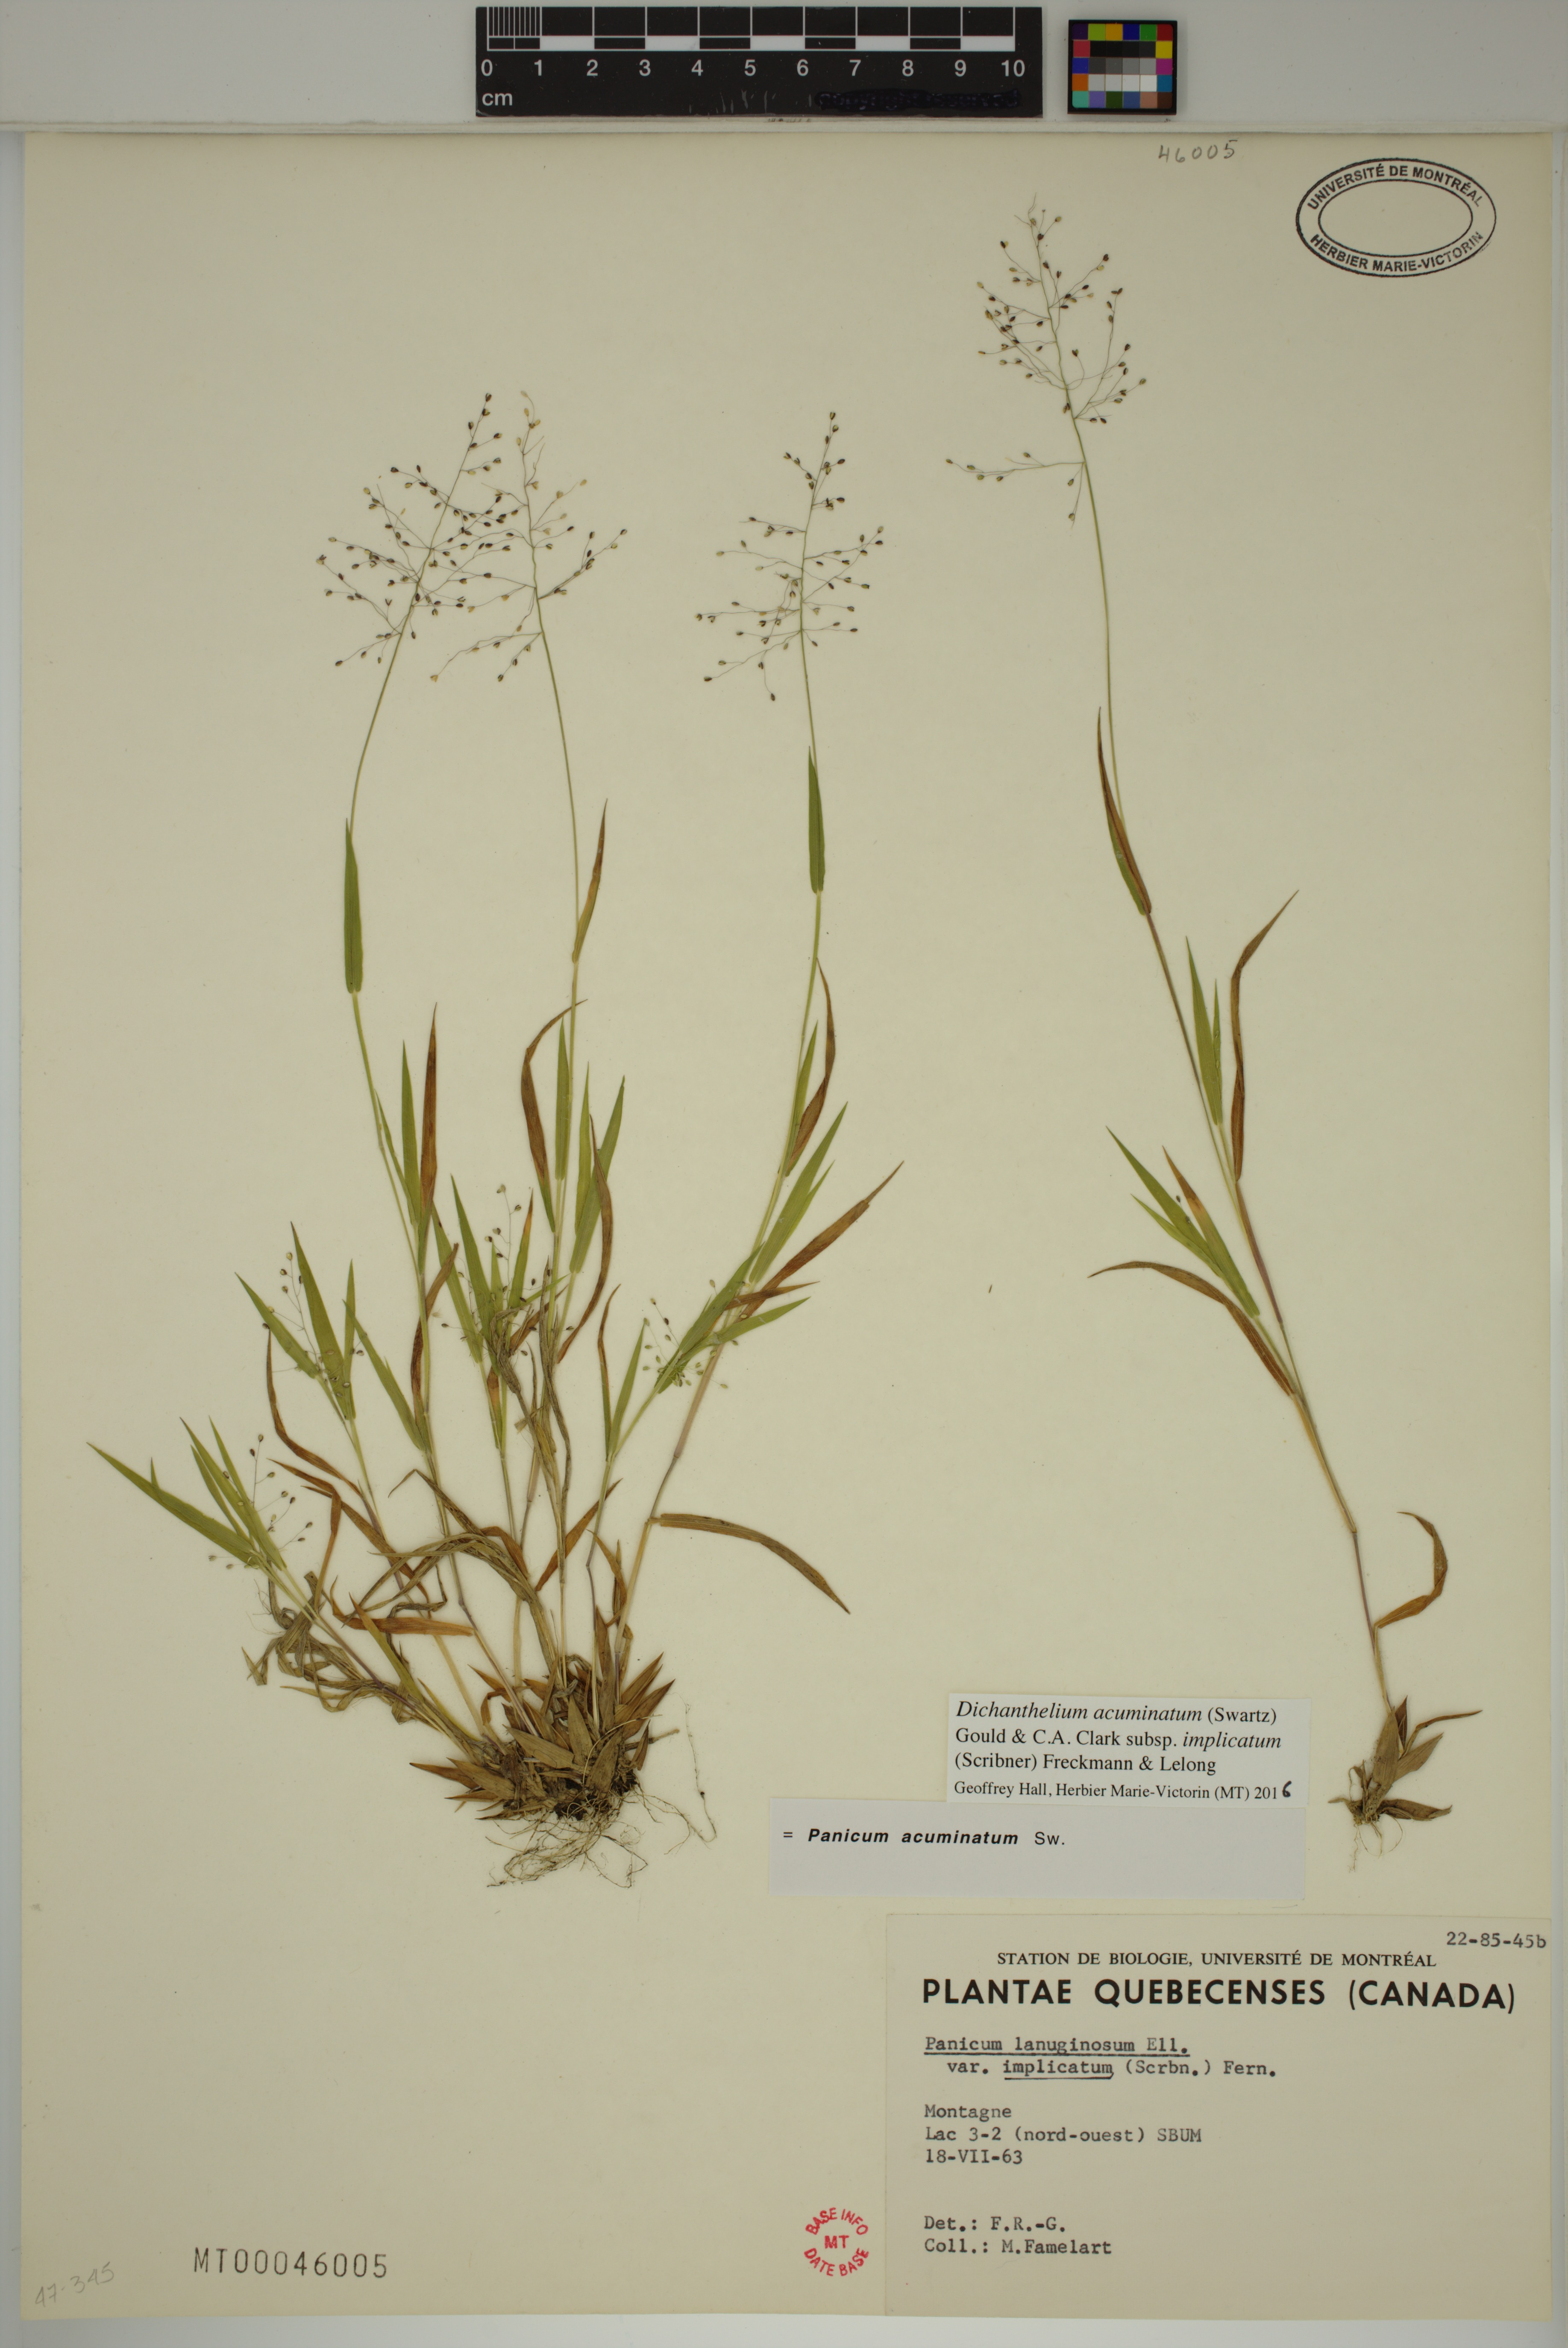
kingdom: Plantae
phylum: Tracheophyta
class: Liliopsida
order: Poales
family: Poaceae
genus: Dichanthelium
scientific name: Dichanthelium implicatum
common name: Slender-stemmed panicgrass
